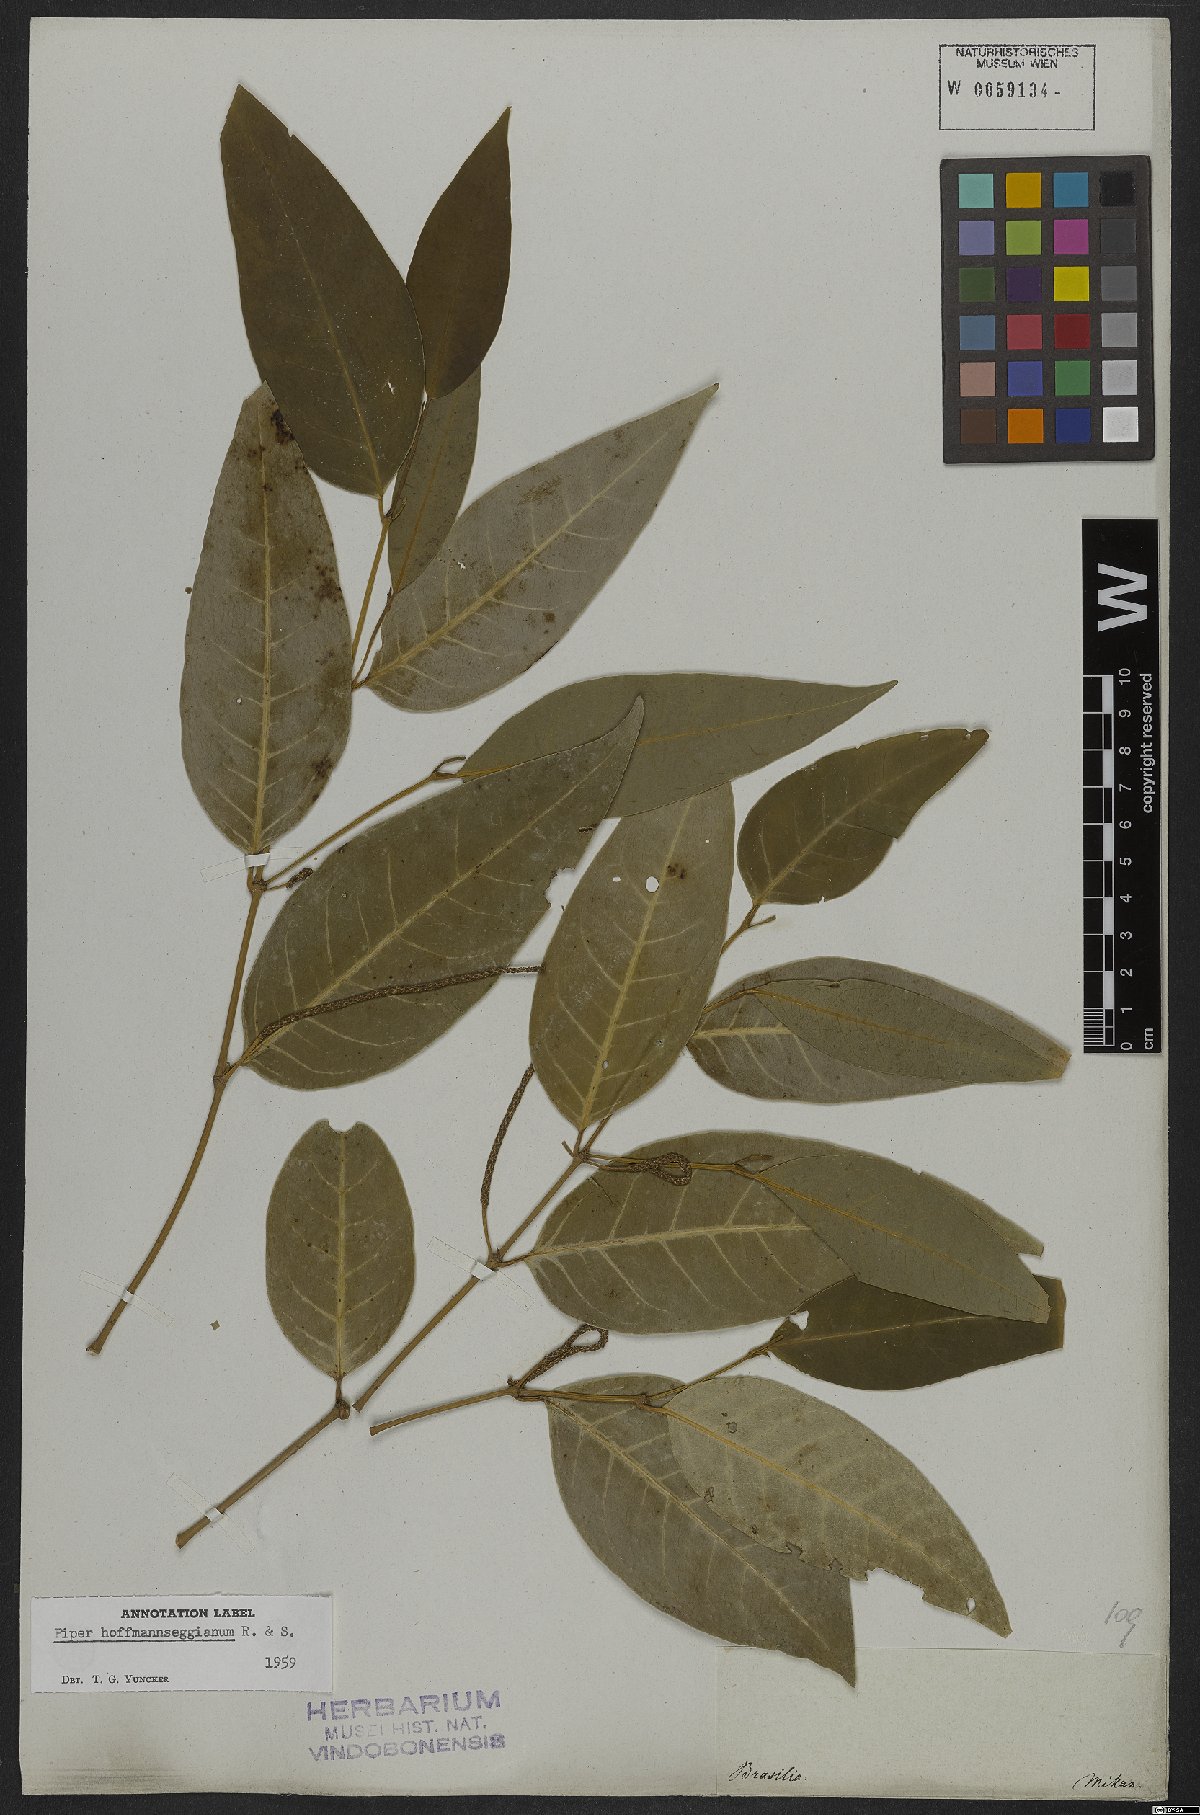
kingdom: Plantae
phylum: Tracheophyta
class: Magnoliopsida
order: Piperales
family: Piperaceae
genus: Piper
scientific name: Piper hoffmannseggianum
